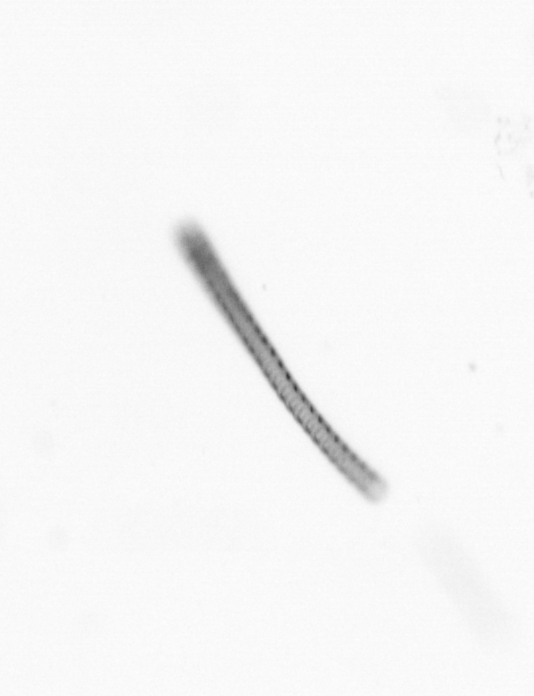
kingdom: Chromista
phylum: Ochrophyta
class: Bacillariophyceae
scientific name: Bacillariophyceae
